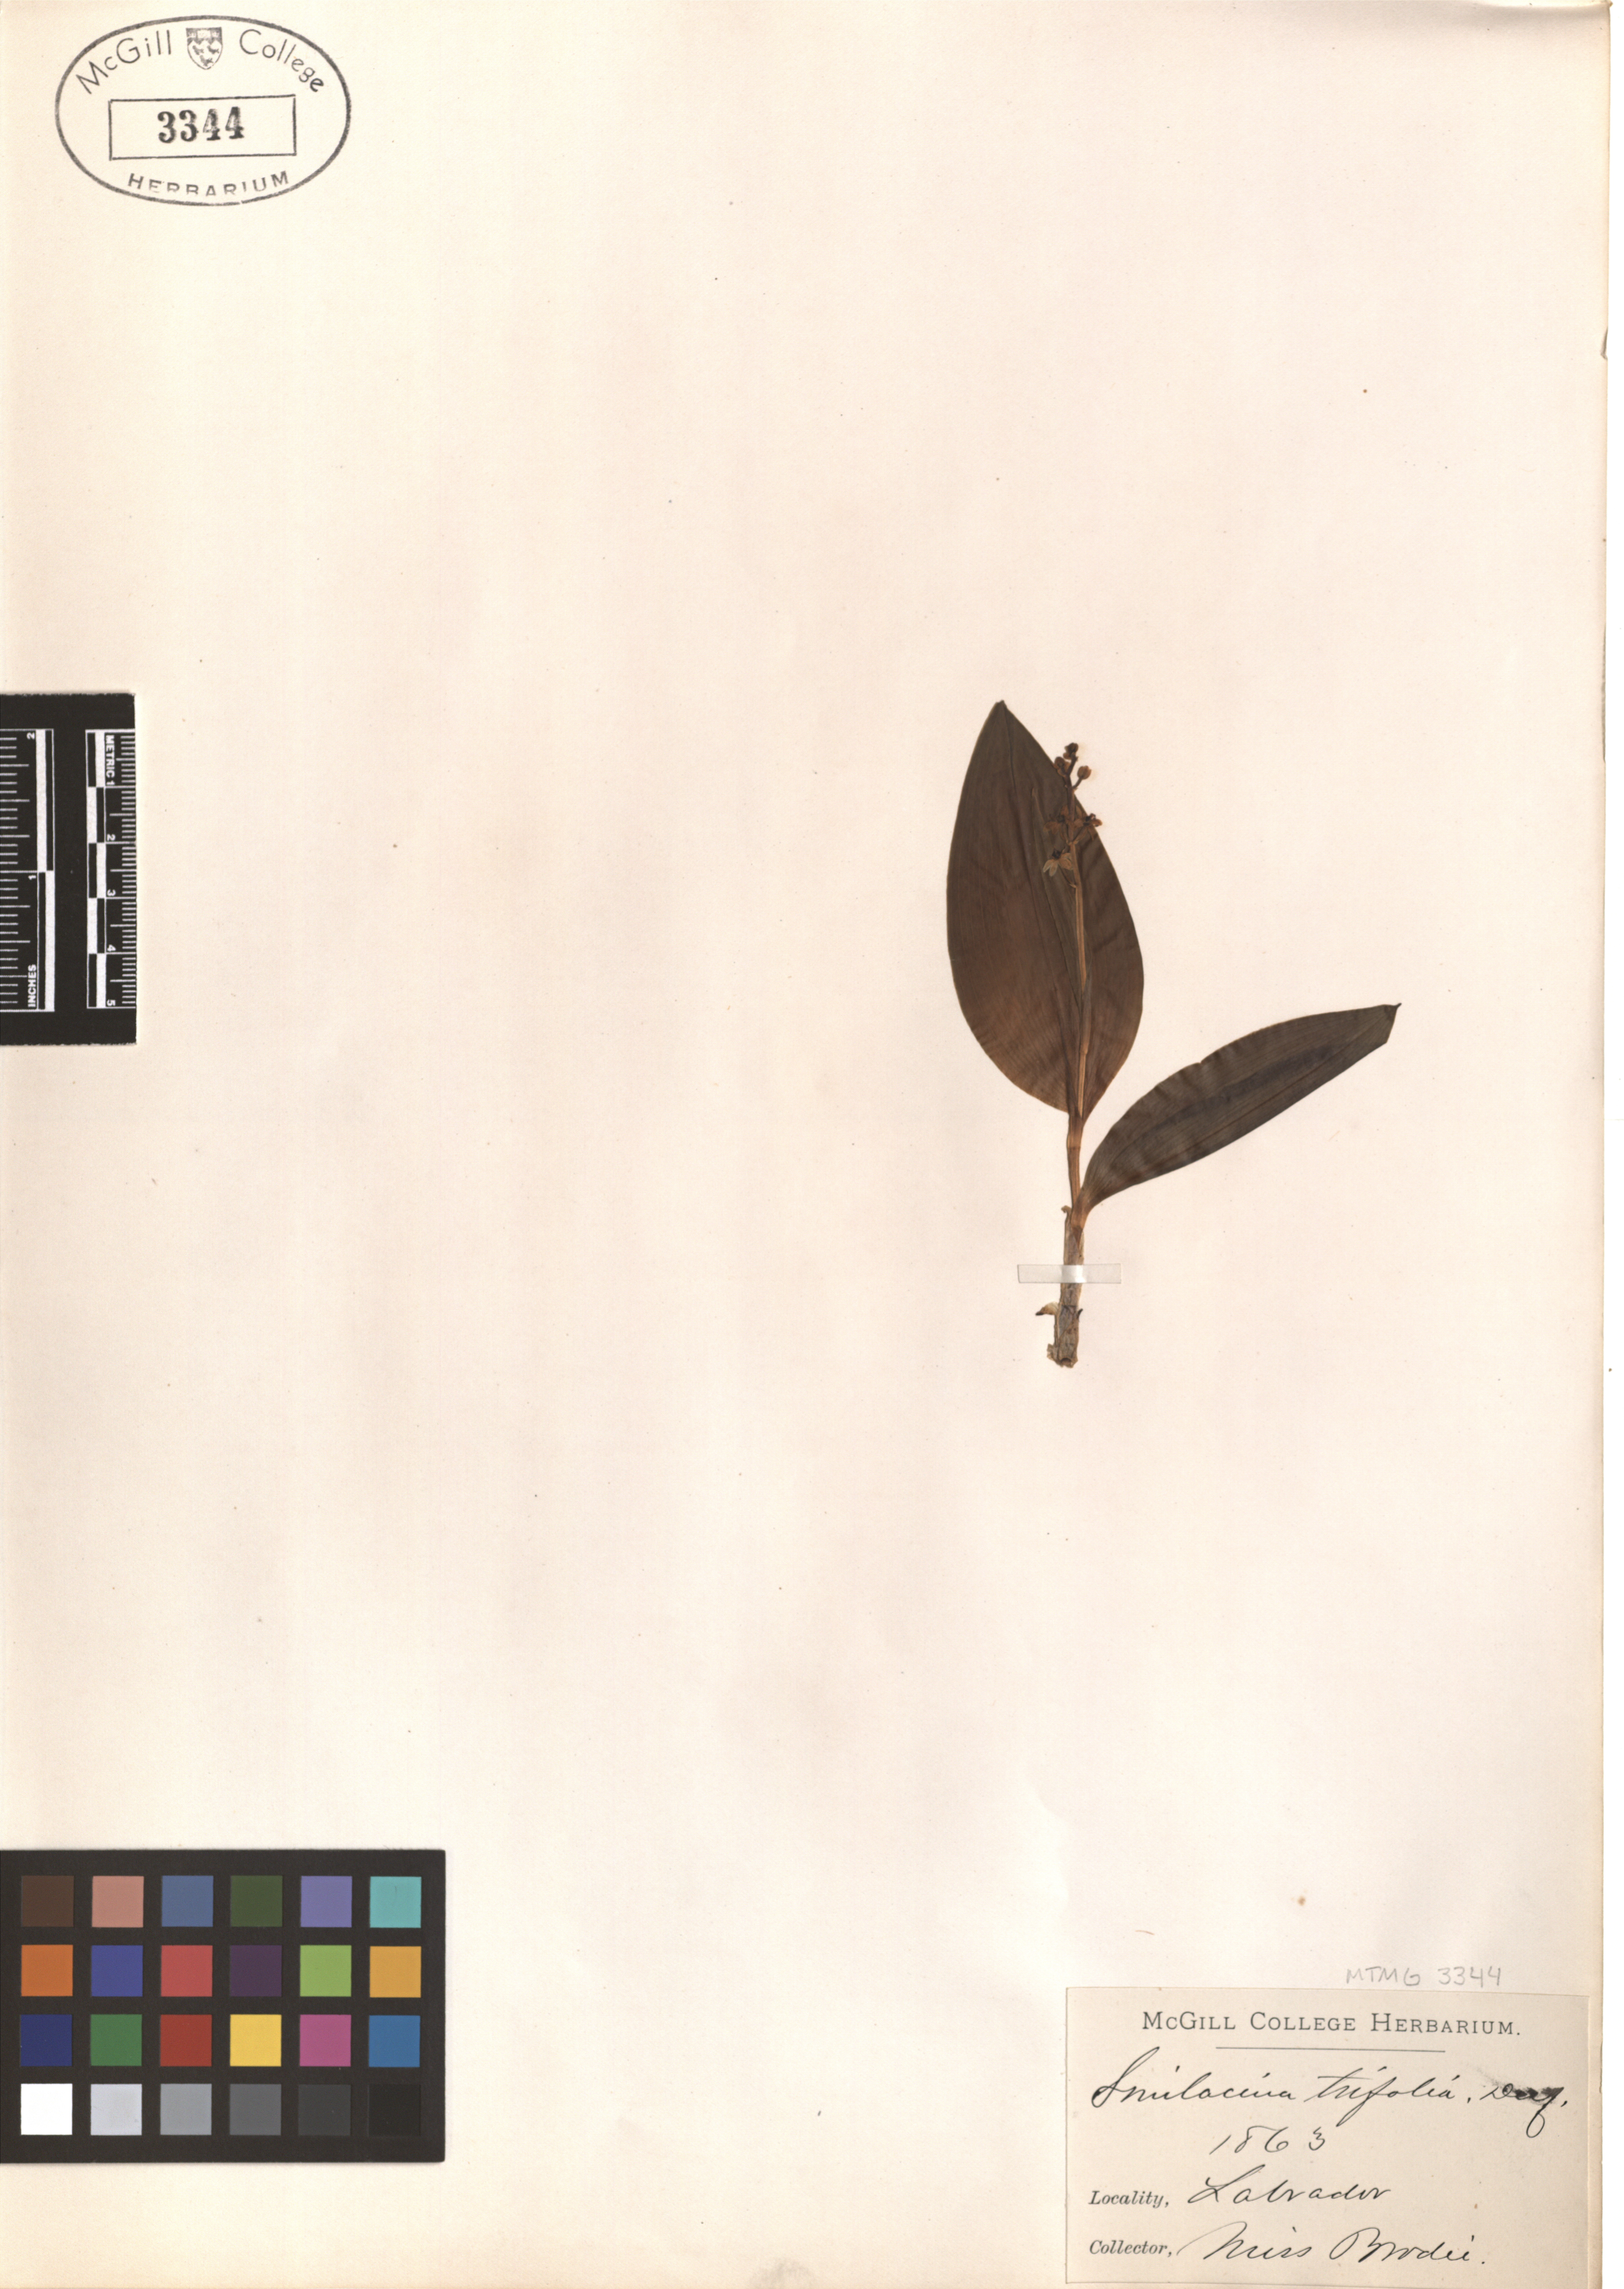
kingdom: Plantae
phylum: Tracheophyta
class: Liliopsida
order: Asparagales
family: Asparagaceae
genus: Maianthemum
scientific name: Maianthemum trifolium
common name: Swamp false solomon's seal
